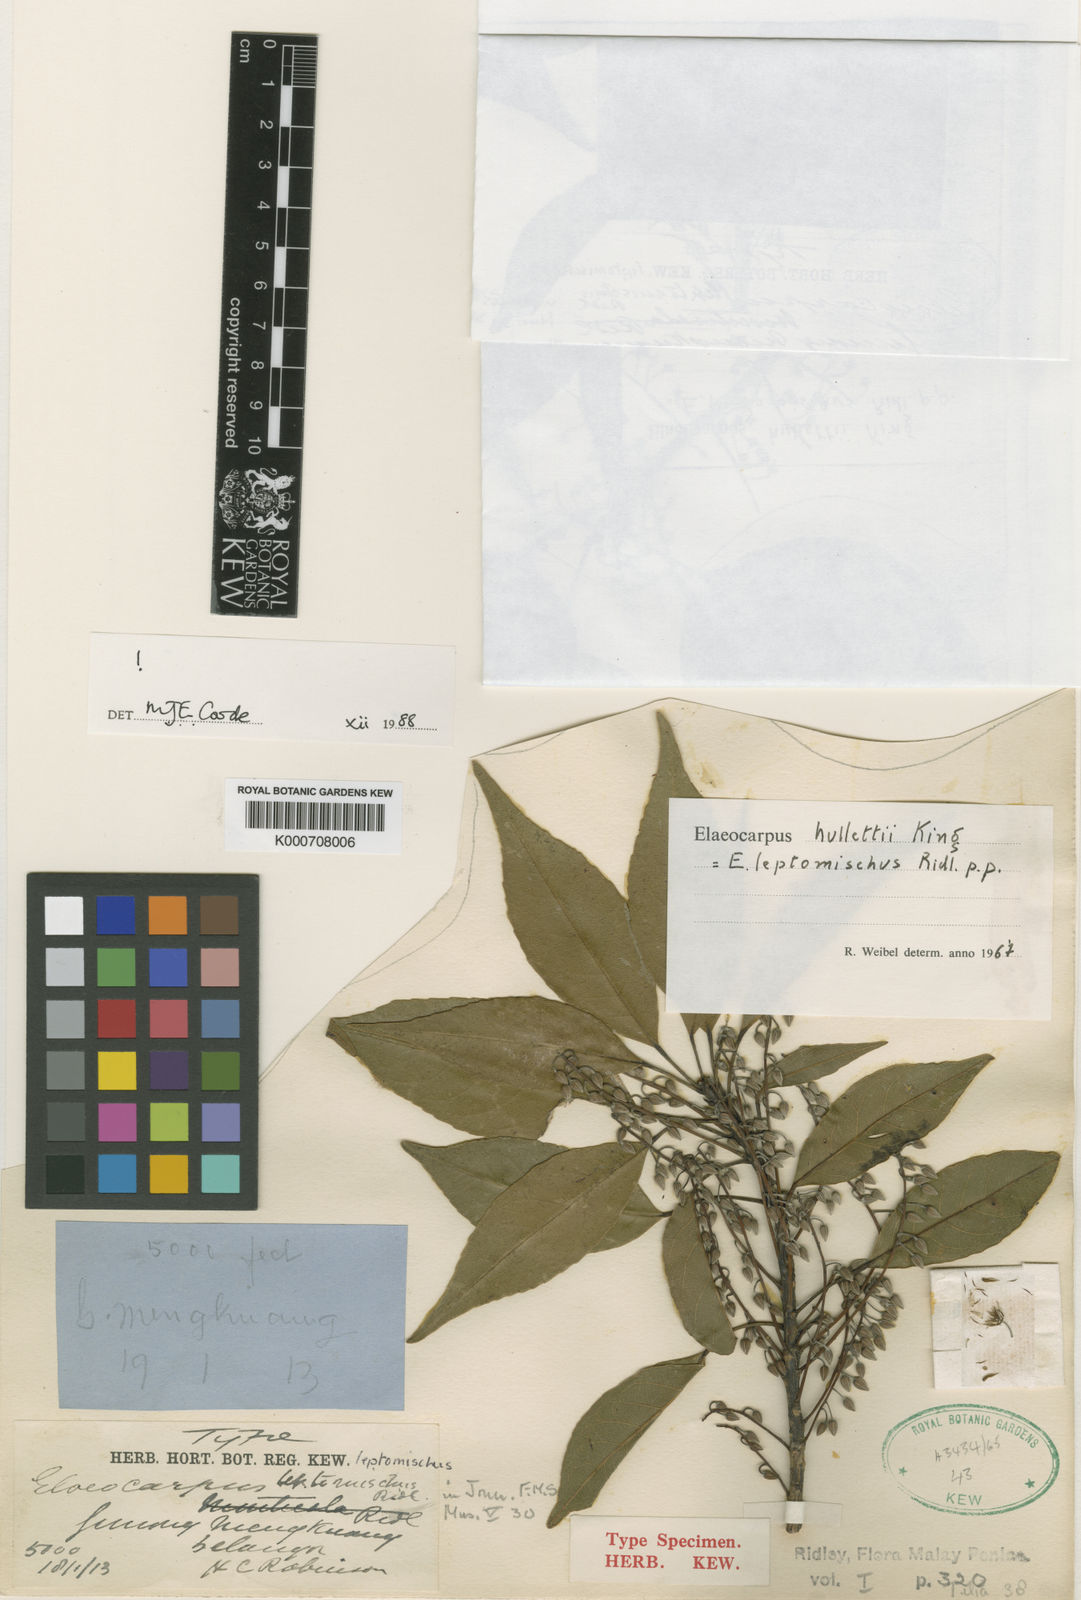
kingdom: Plantae
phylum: Tracheophyta
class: Magnoliopsida
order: Oxalidales
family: Elaeocarpaceae
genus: Elaeocarpus
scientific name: Elaeocarpus palembanicus
